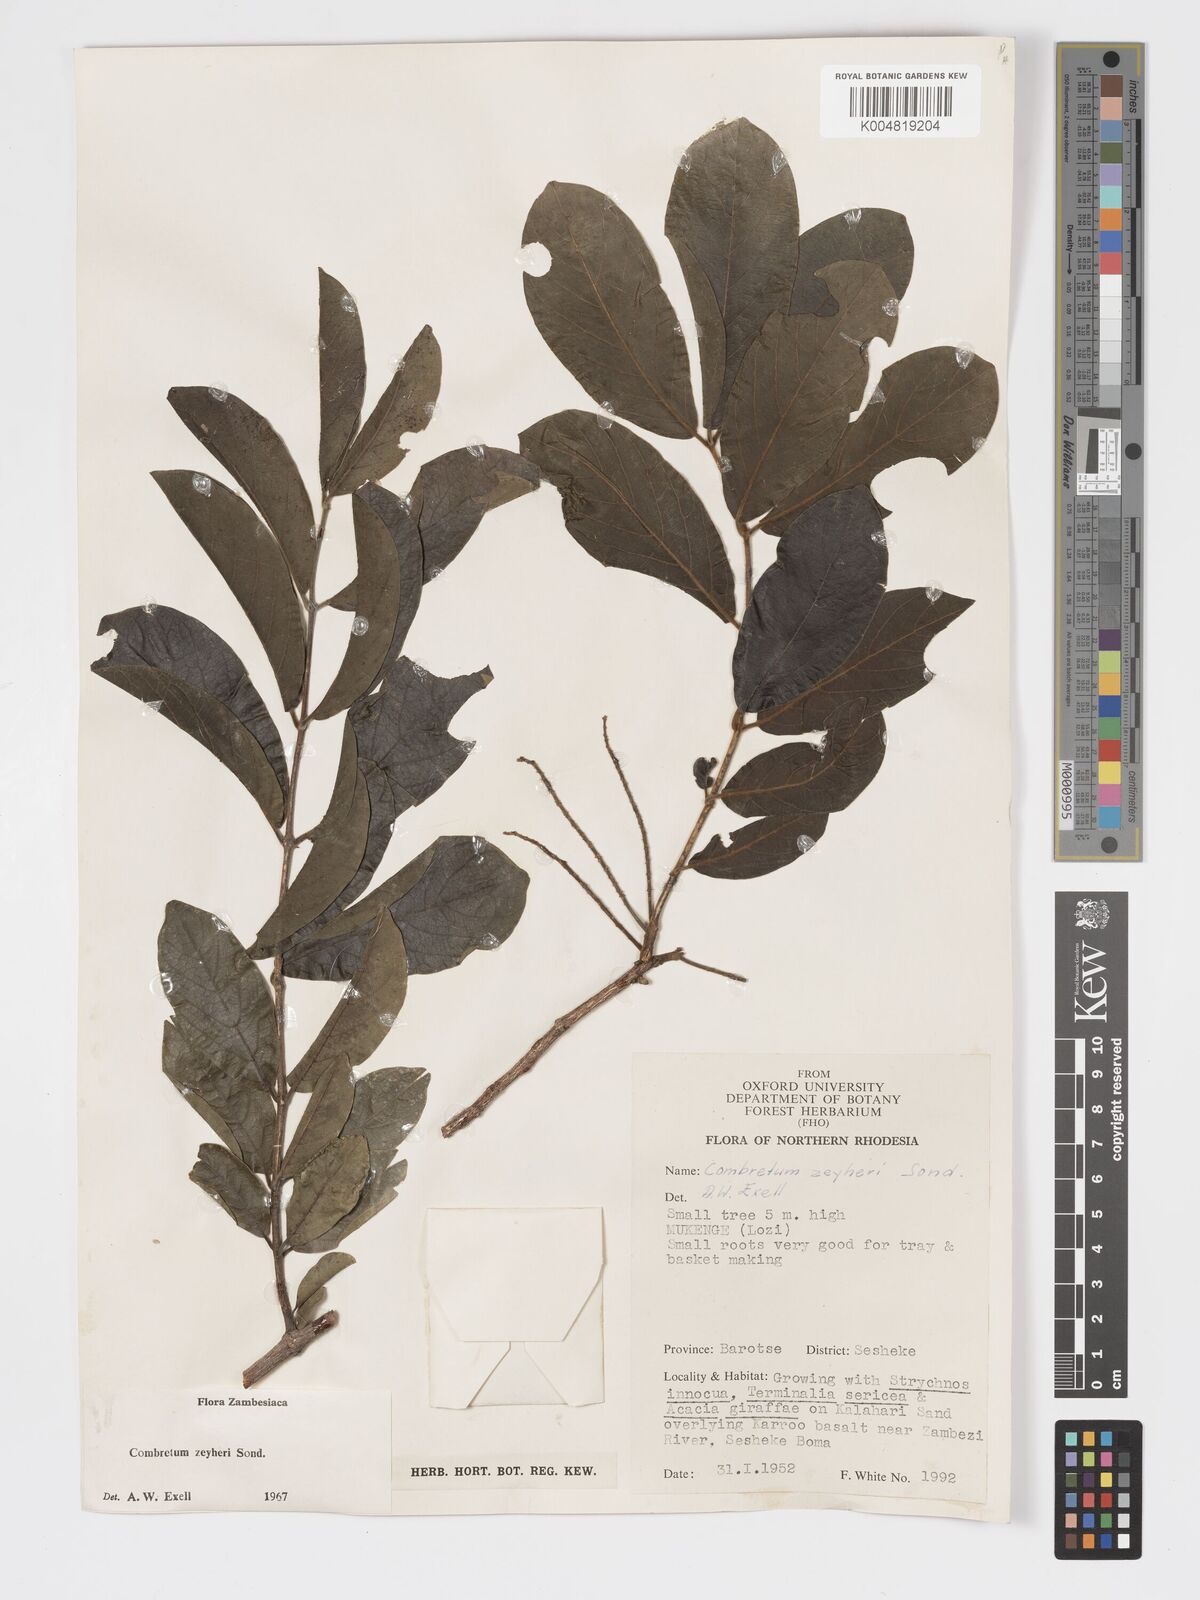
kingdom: Plantae
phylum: Tracheophyta
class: Magnoliopsida
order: Myrtales
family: Combretaceae
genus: Combretum
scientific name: Combretum zeyheri
